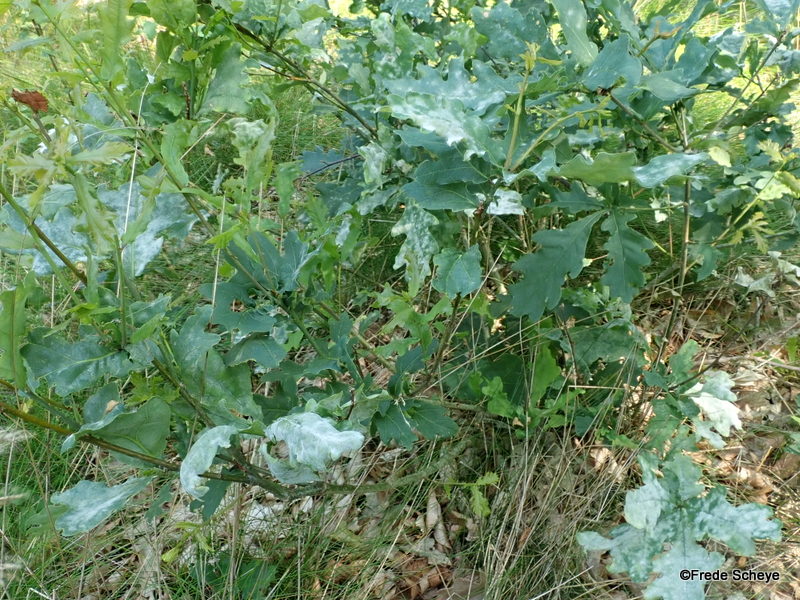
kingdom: Fungi
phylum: Ascomycota
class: Leotiomycetes
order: Helotiales
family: Erysiphaceae
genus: Erysiphe
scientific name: Erysiphe alphitoides
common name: ege-meldug
